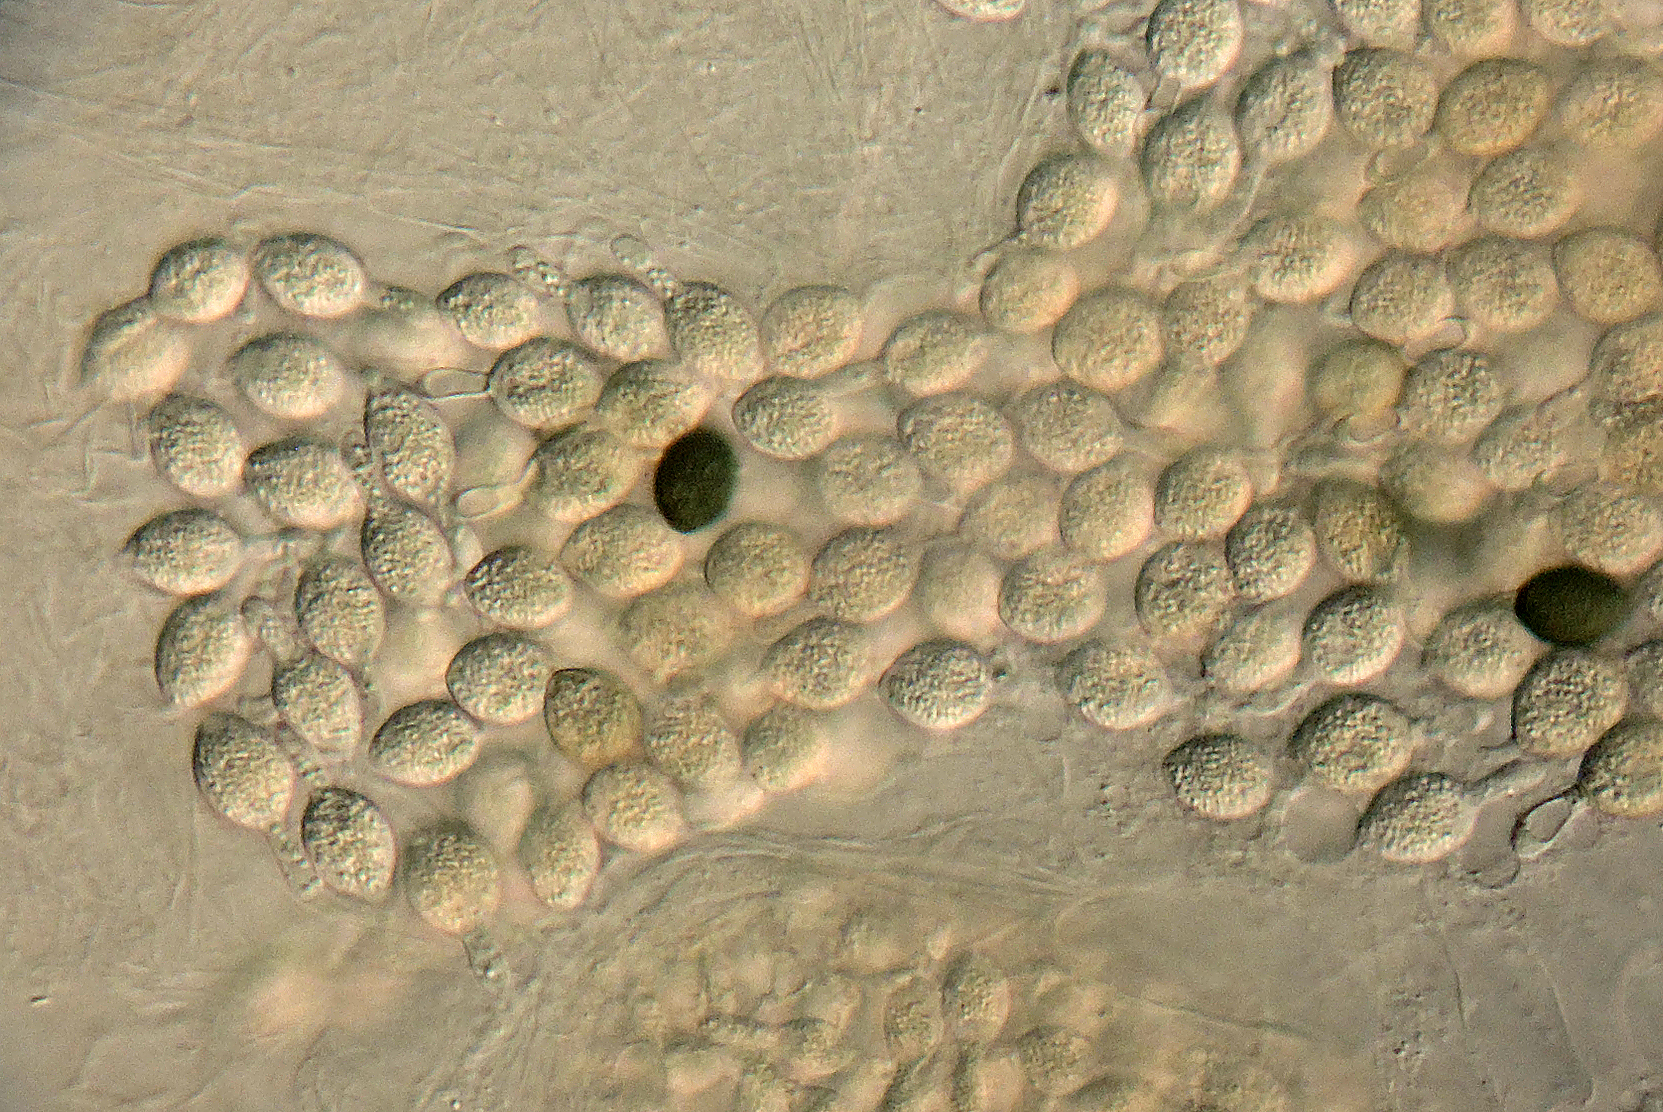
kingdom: Fungi
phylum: Ascomycota
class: Sordariomycetes
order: Sordariales
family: Podosporaceae
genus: Podospora
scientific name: Podospora granulostriata
